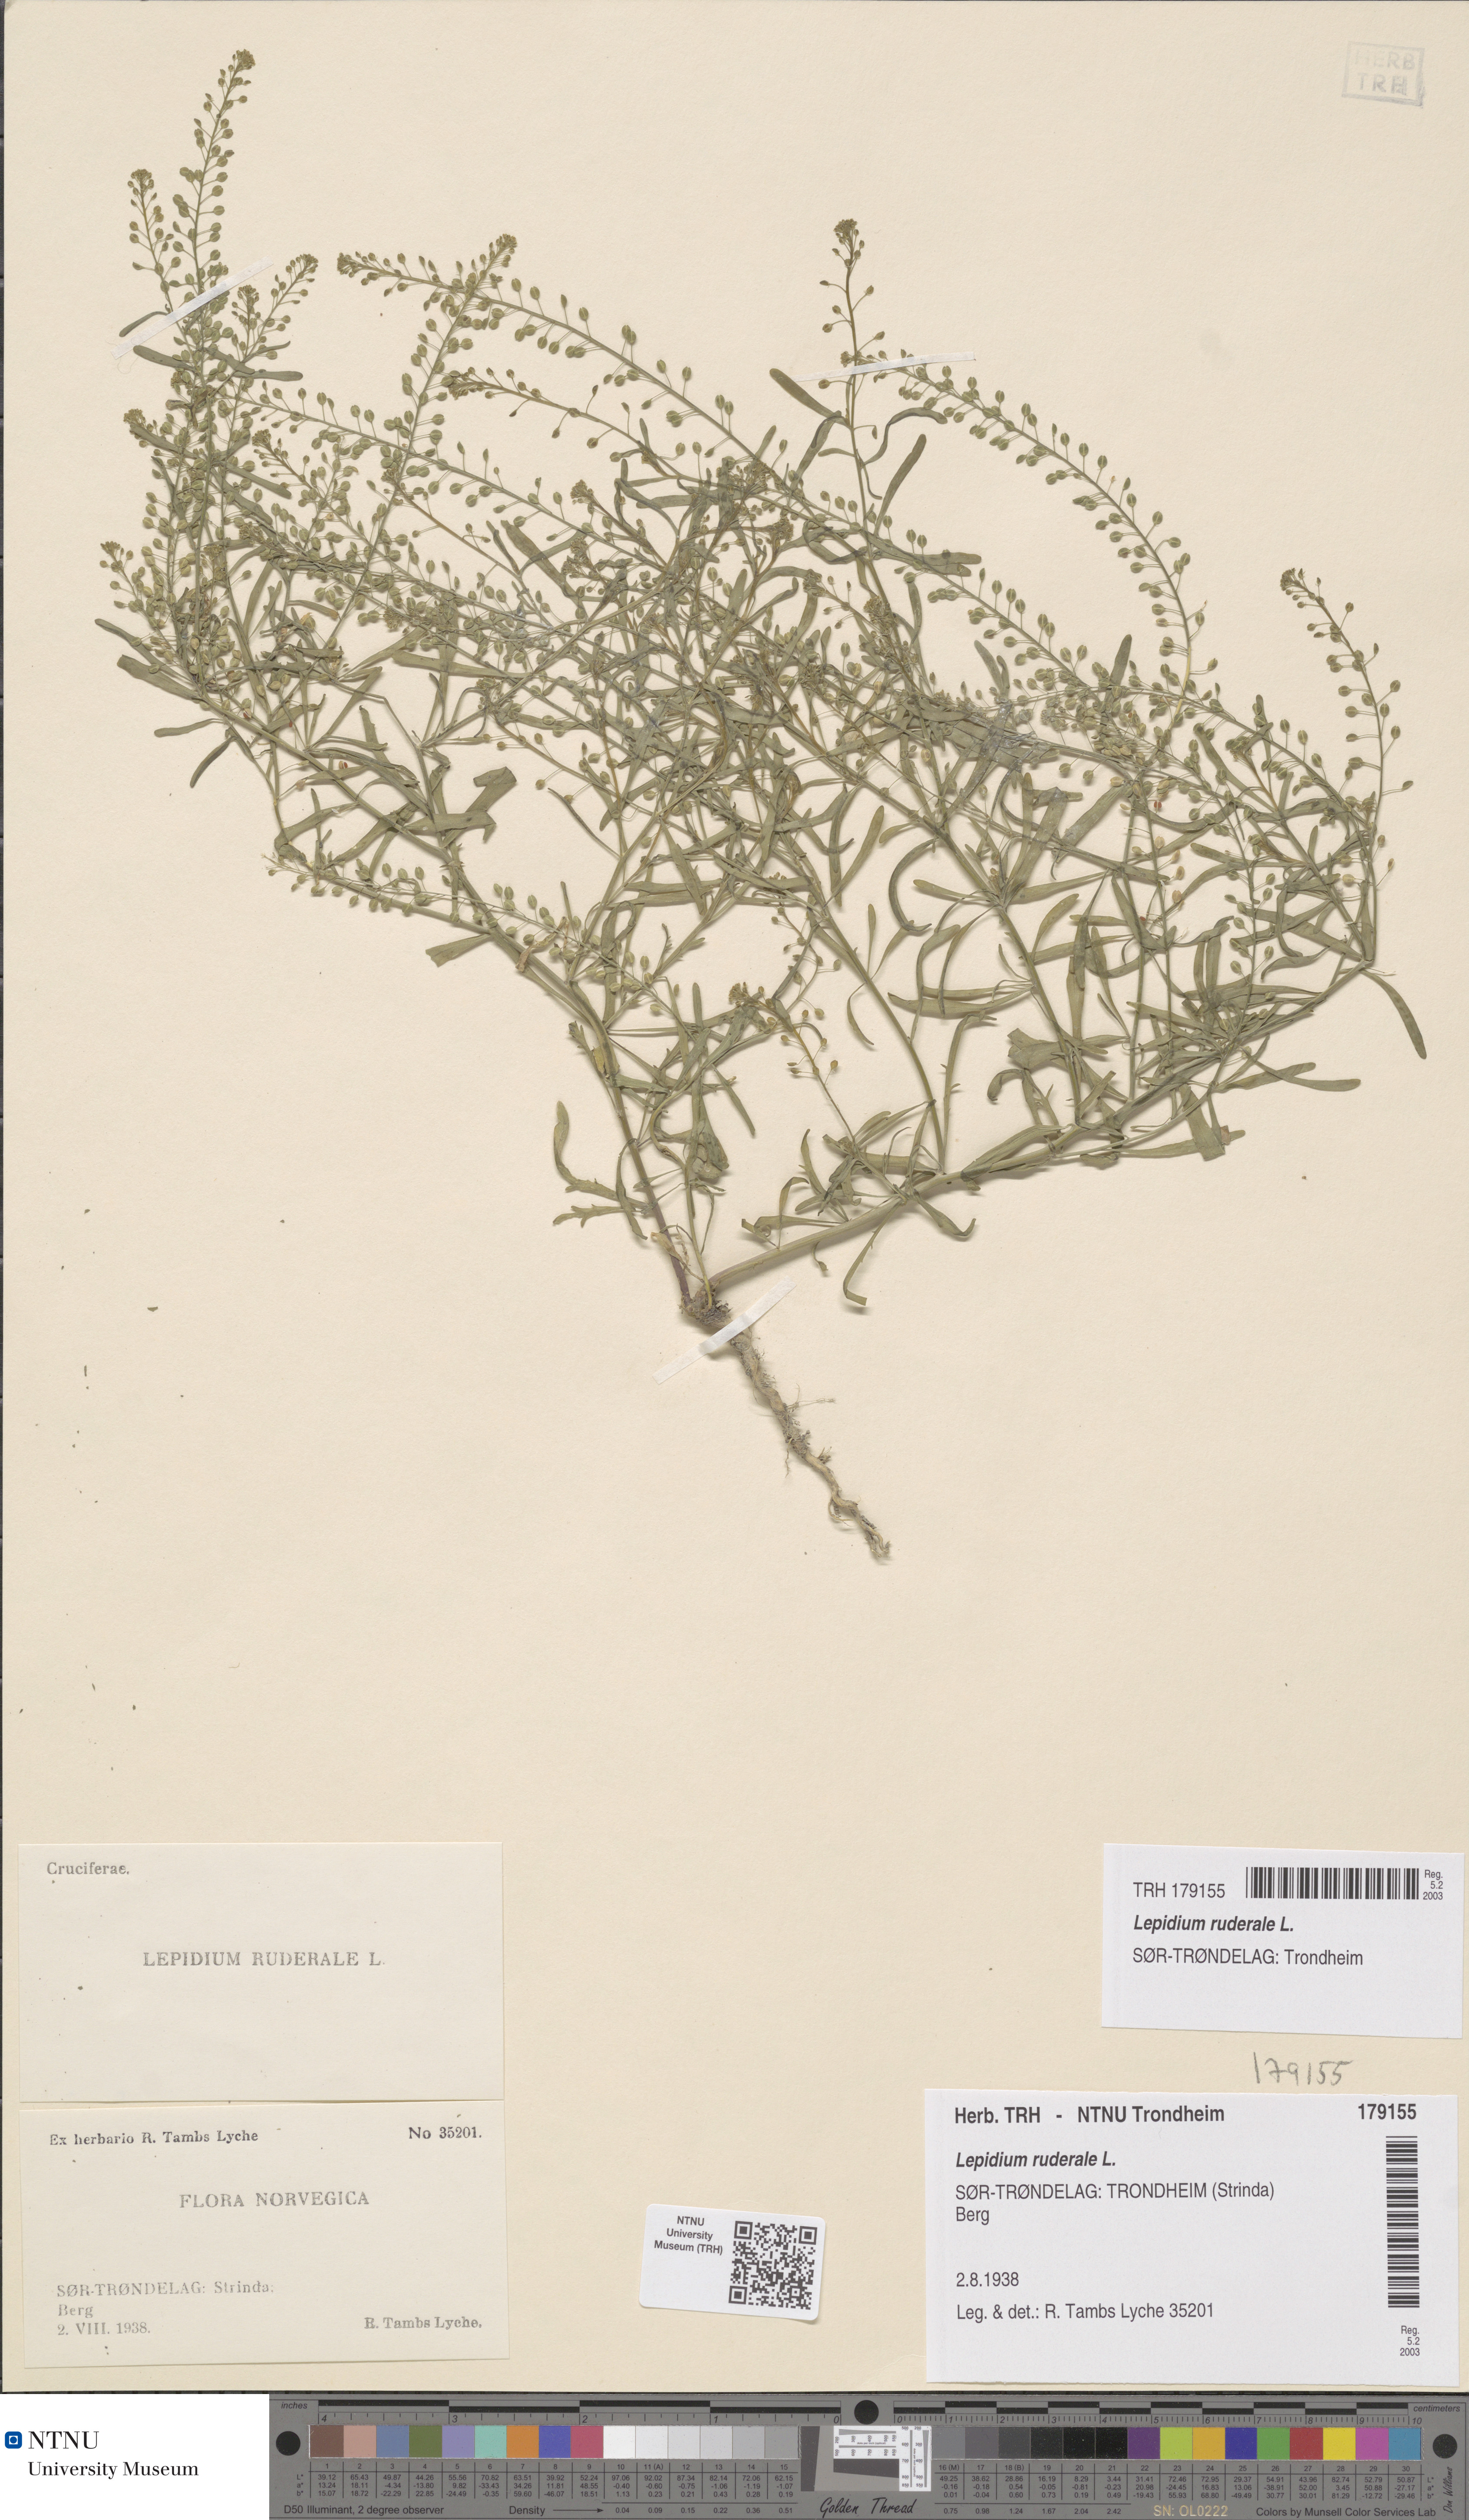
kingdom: Plantae
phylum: Tracheophyta
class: Magnoliopsida
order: Brassicales
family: Brassicaceae
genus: Lepidium
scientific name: Lepidium ruderale
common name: Narrow-leaved pepperwort
